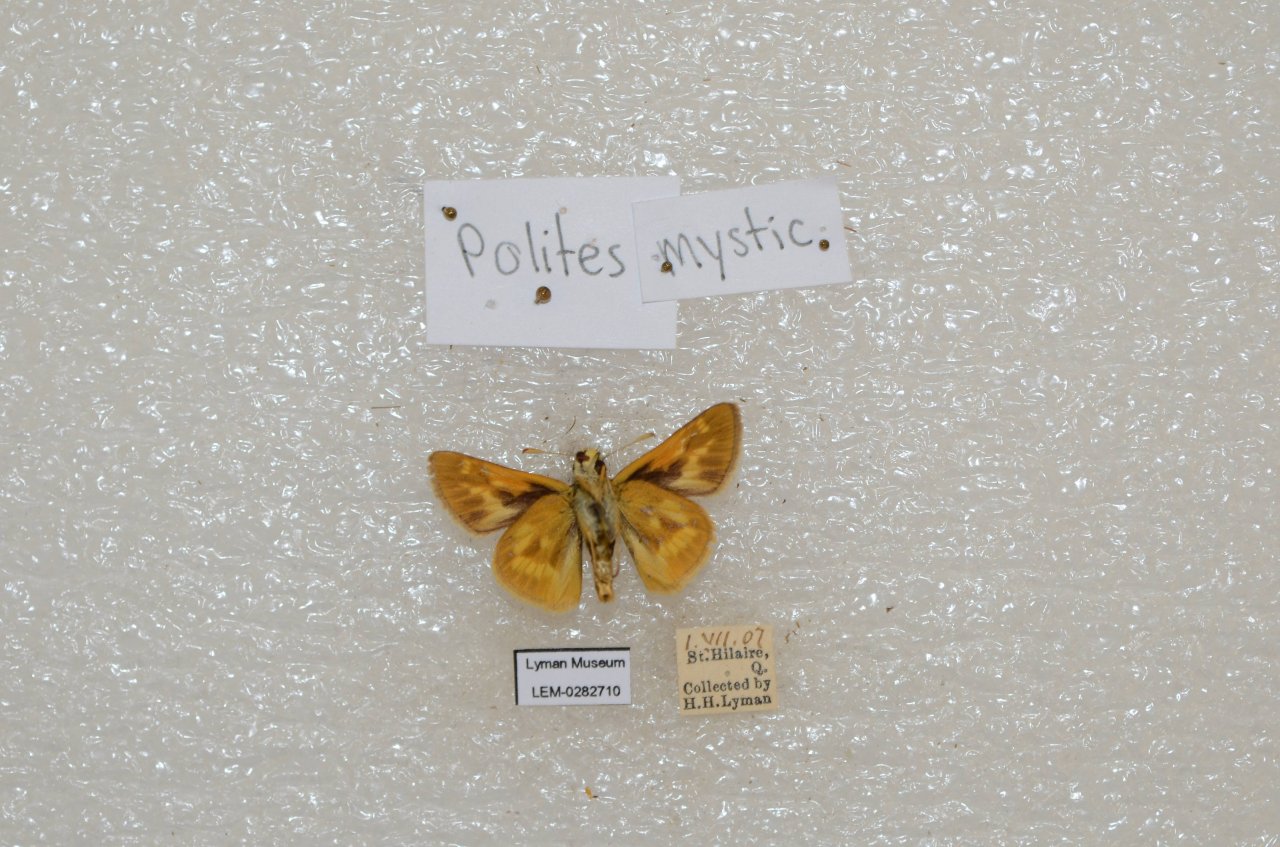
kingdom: Animalia
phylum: Arthropoda
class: Insecta
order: Lepidoptera
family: Hesperiidae
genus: Polites
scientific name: Polites
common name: Long Dash Skipper
